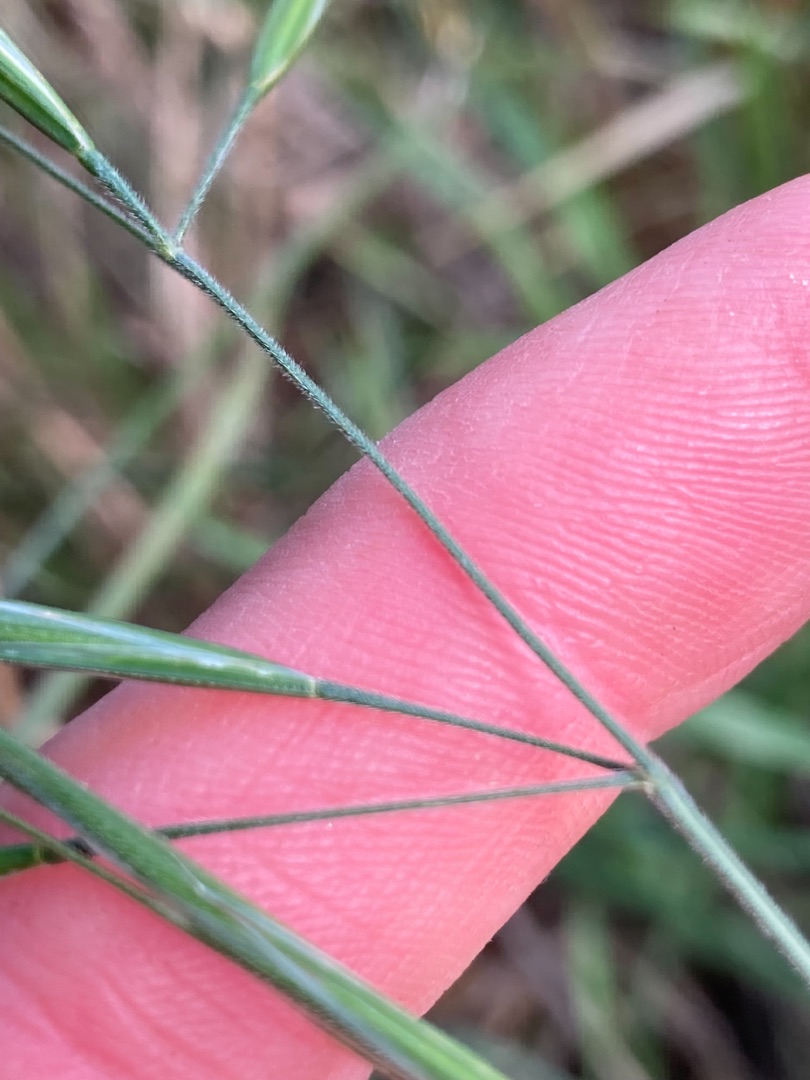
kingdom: Plantae
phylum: Tracheophyta
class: Liliopsida
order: Poales
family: Poaceae
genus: Bromus
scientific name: Bromus diandrus
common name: Storakset hejre
